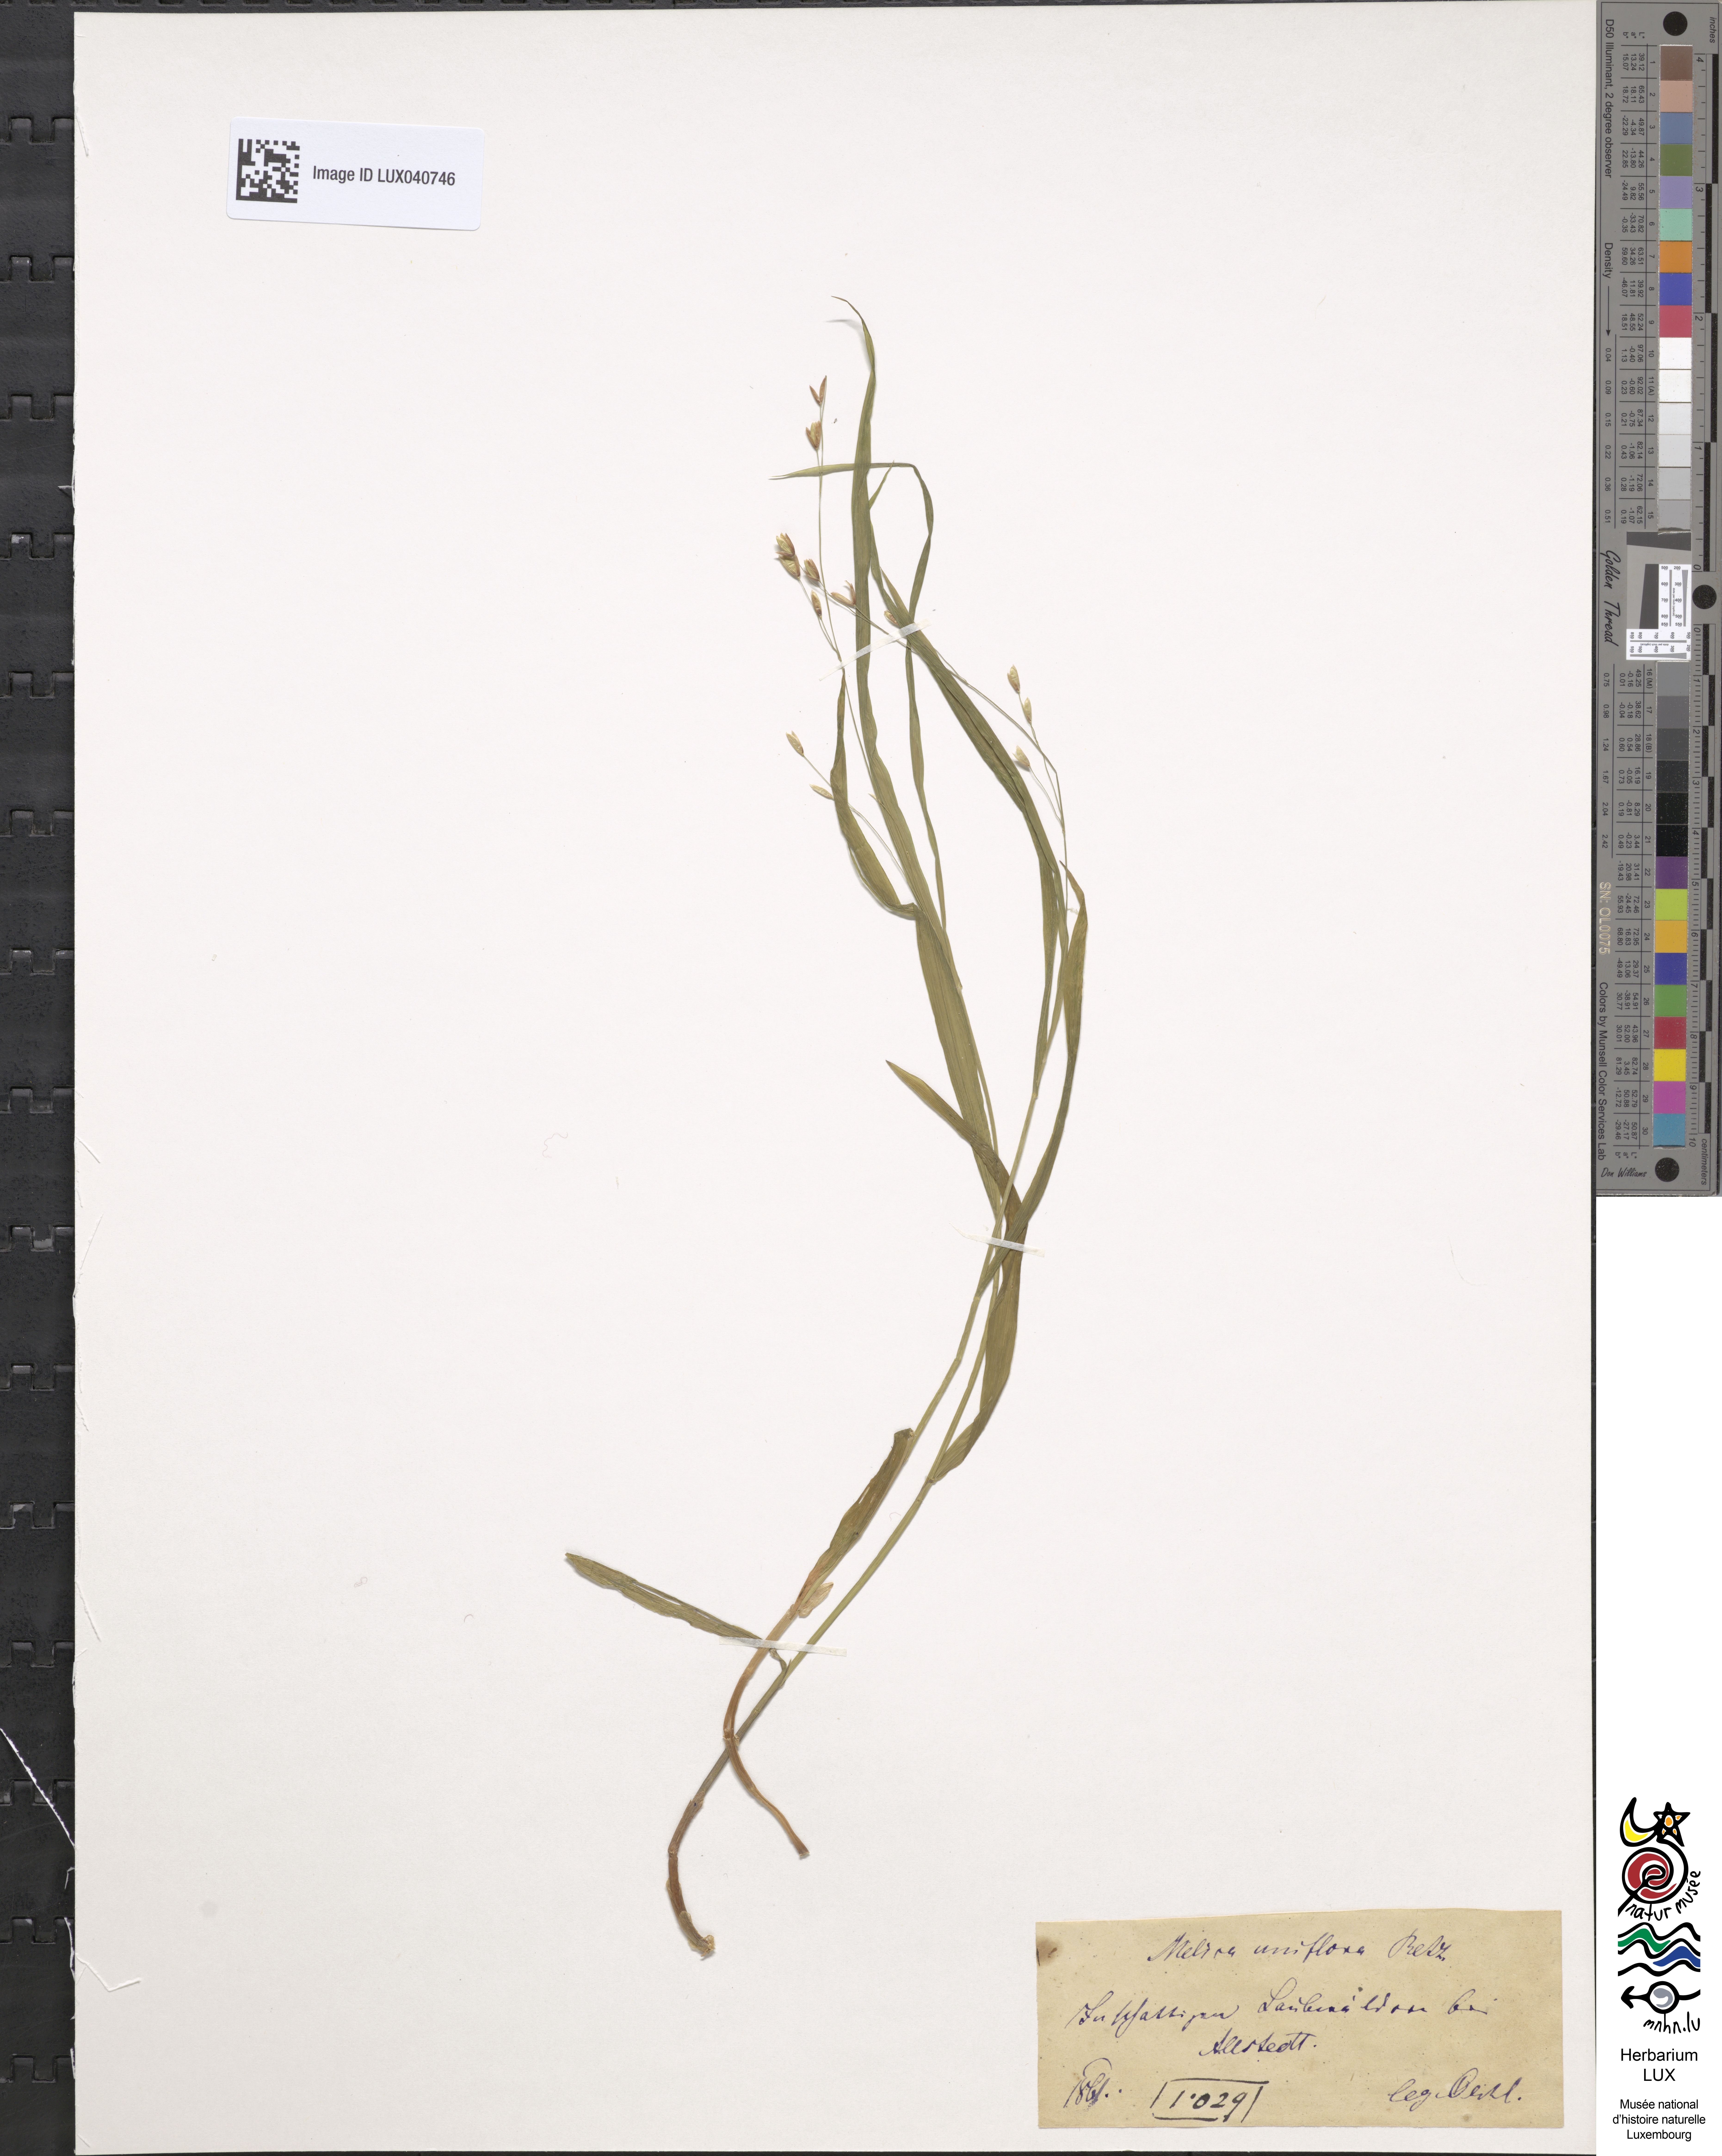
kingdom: Plantae
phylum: Tracheophyta
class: Liliopsida
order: Poales
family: Poaceae
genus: Melica
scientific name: Melica uniflora
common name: Wood melick
